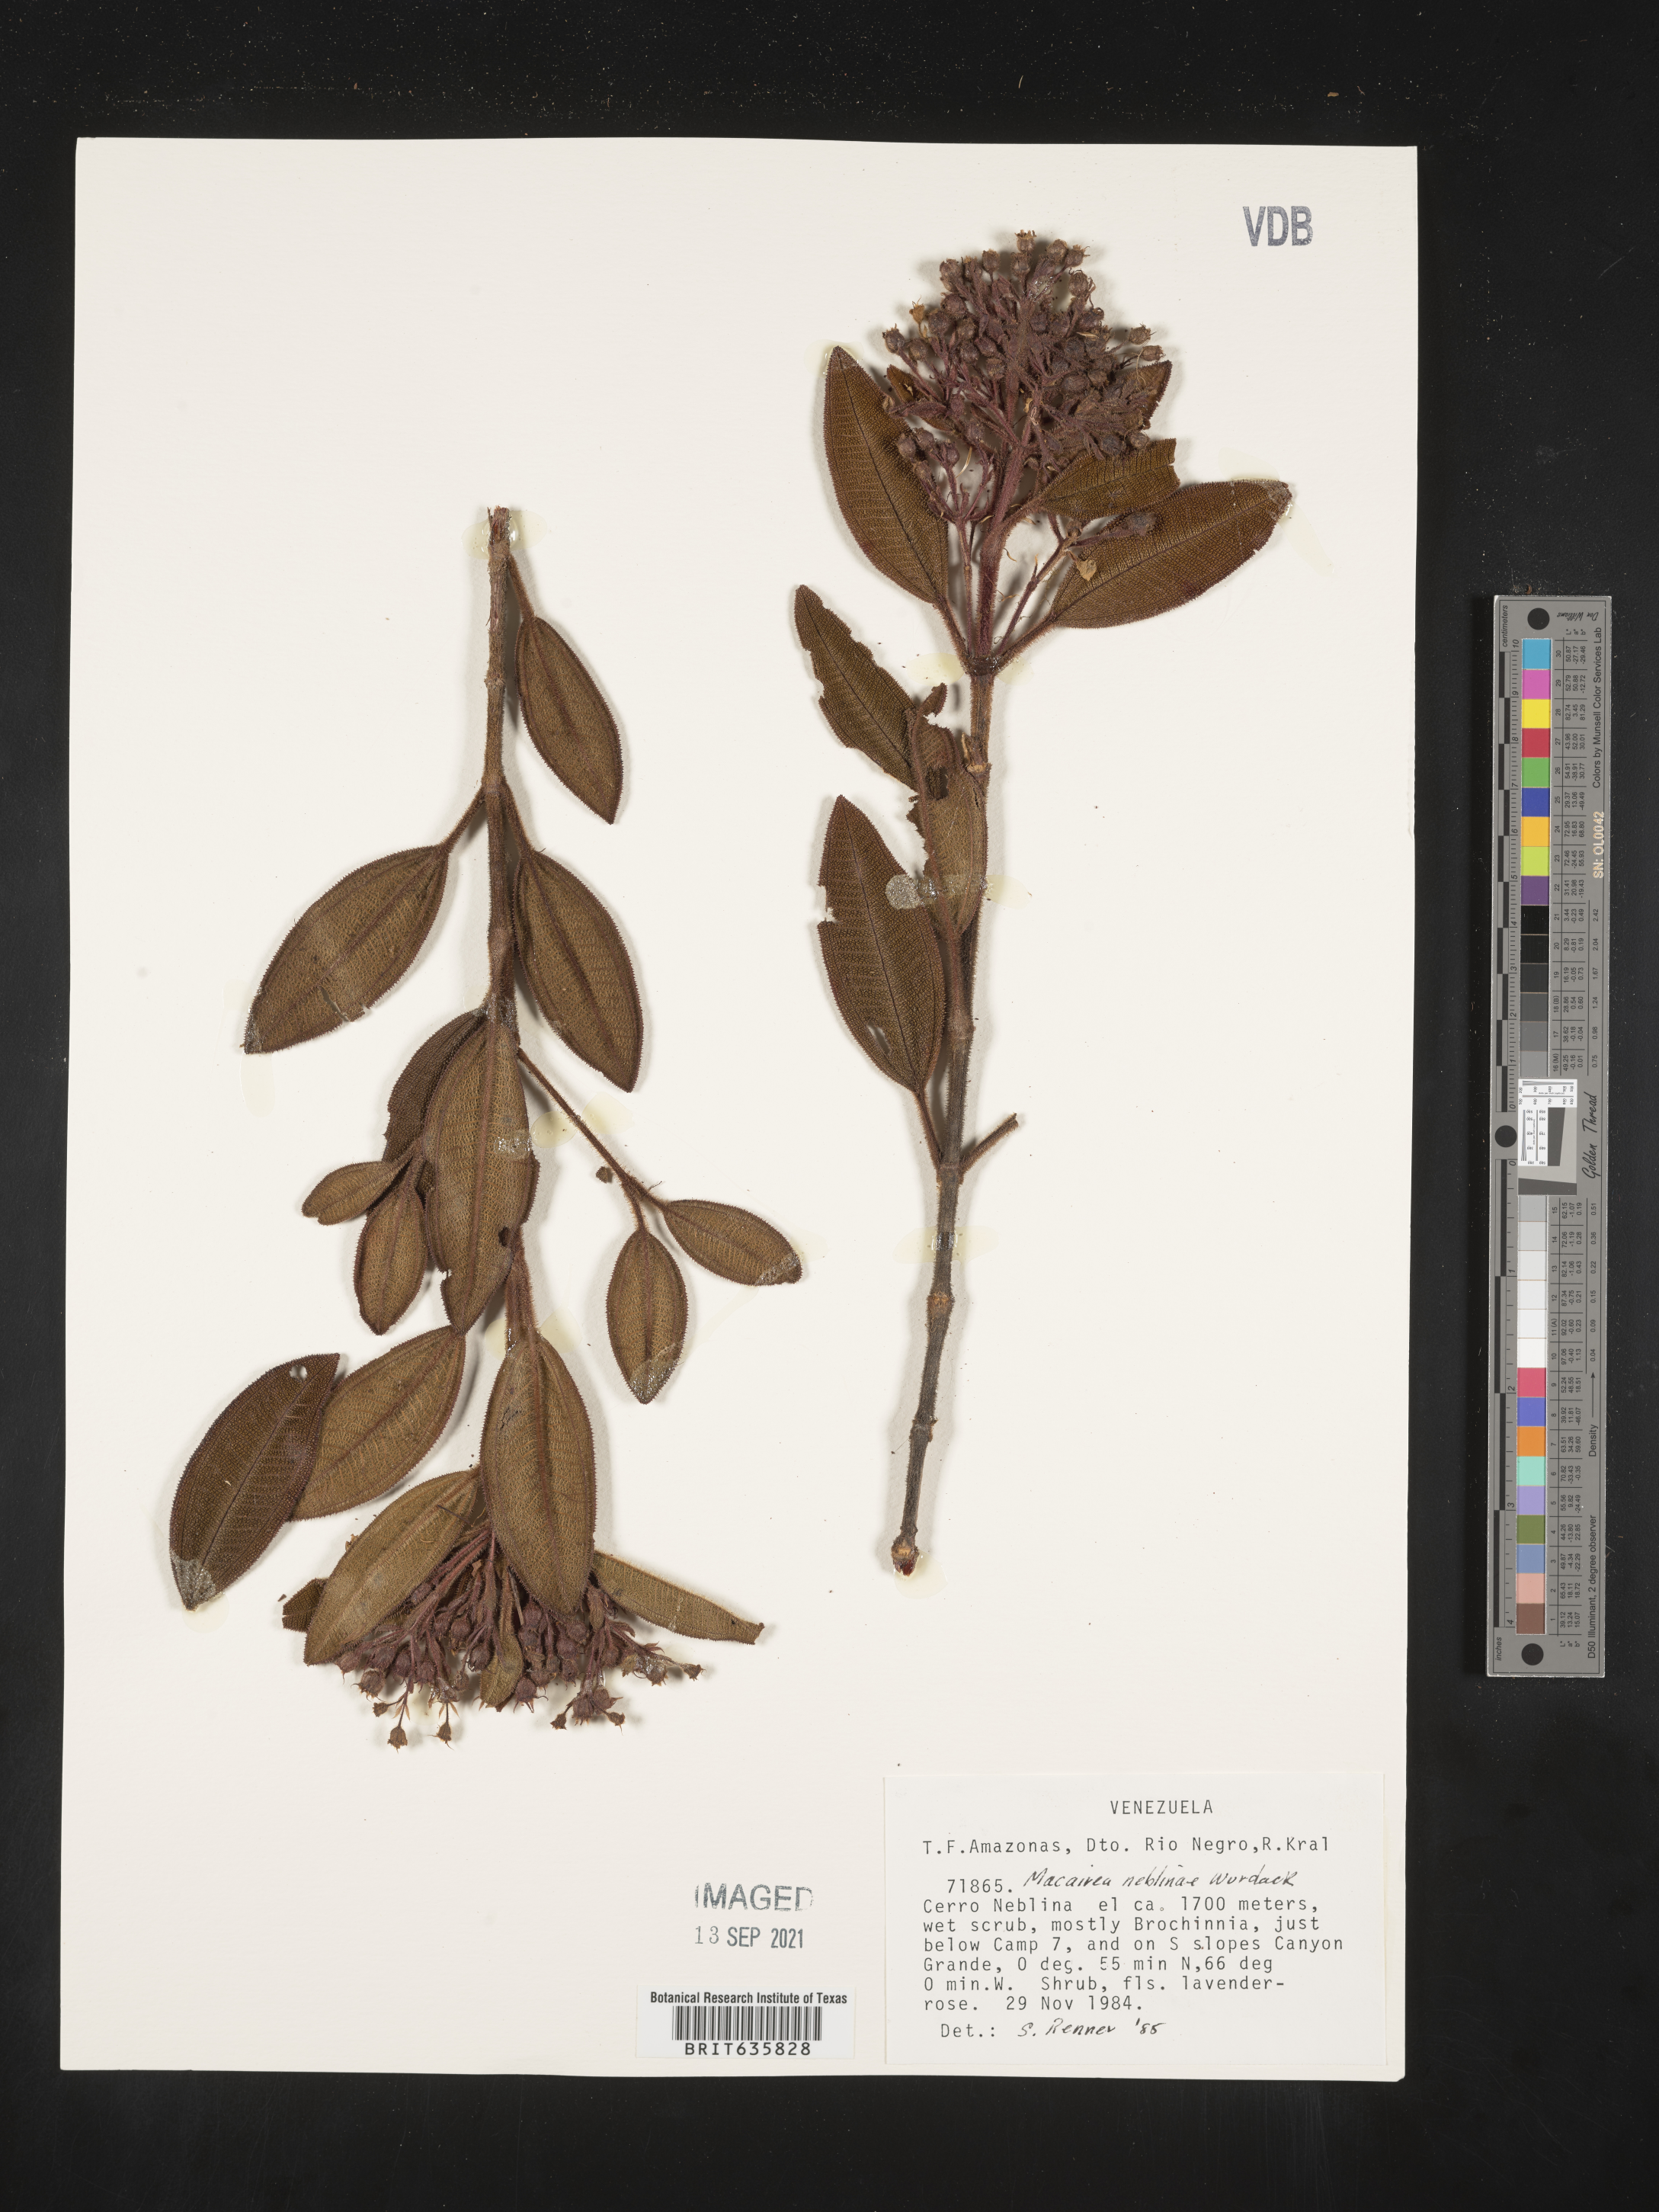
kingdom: Plantae
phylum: Tracheophyta
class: Magnoliopsida
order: Myrtales
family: Melastomataceae
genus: Macairea
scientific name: Macairea
